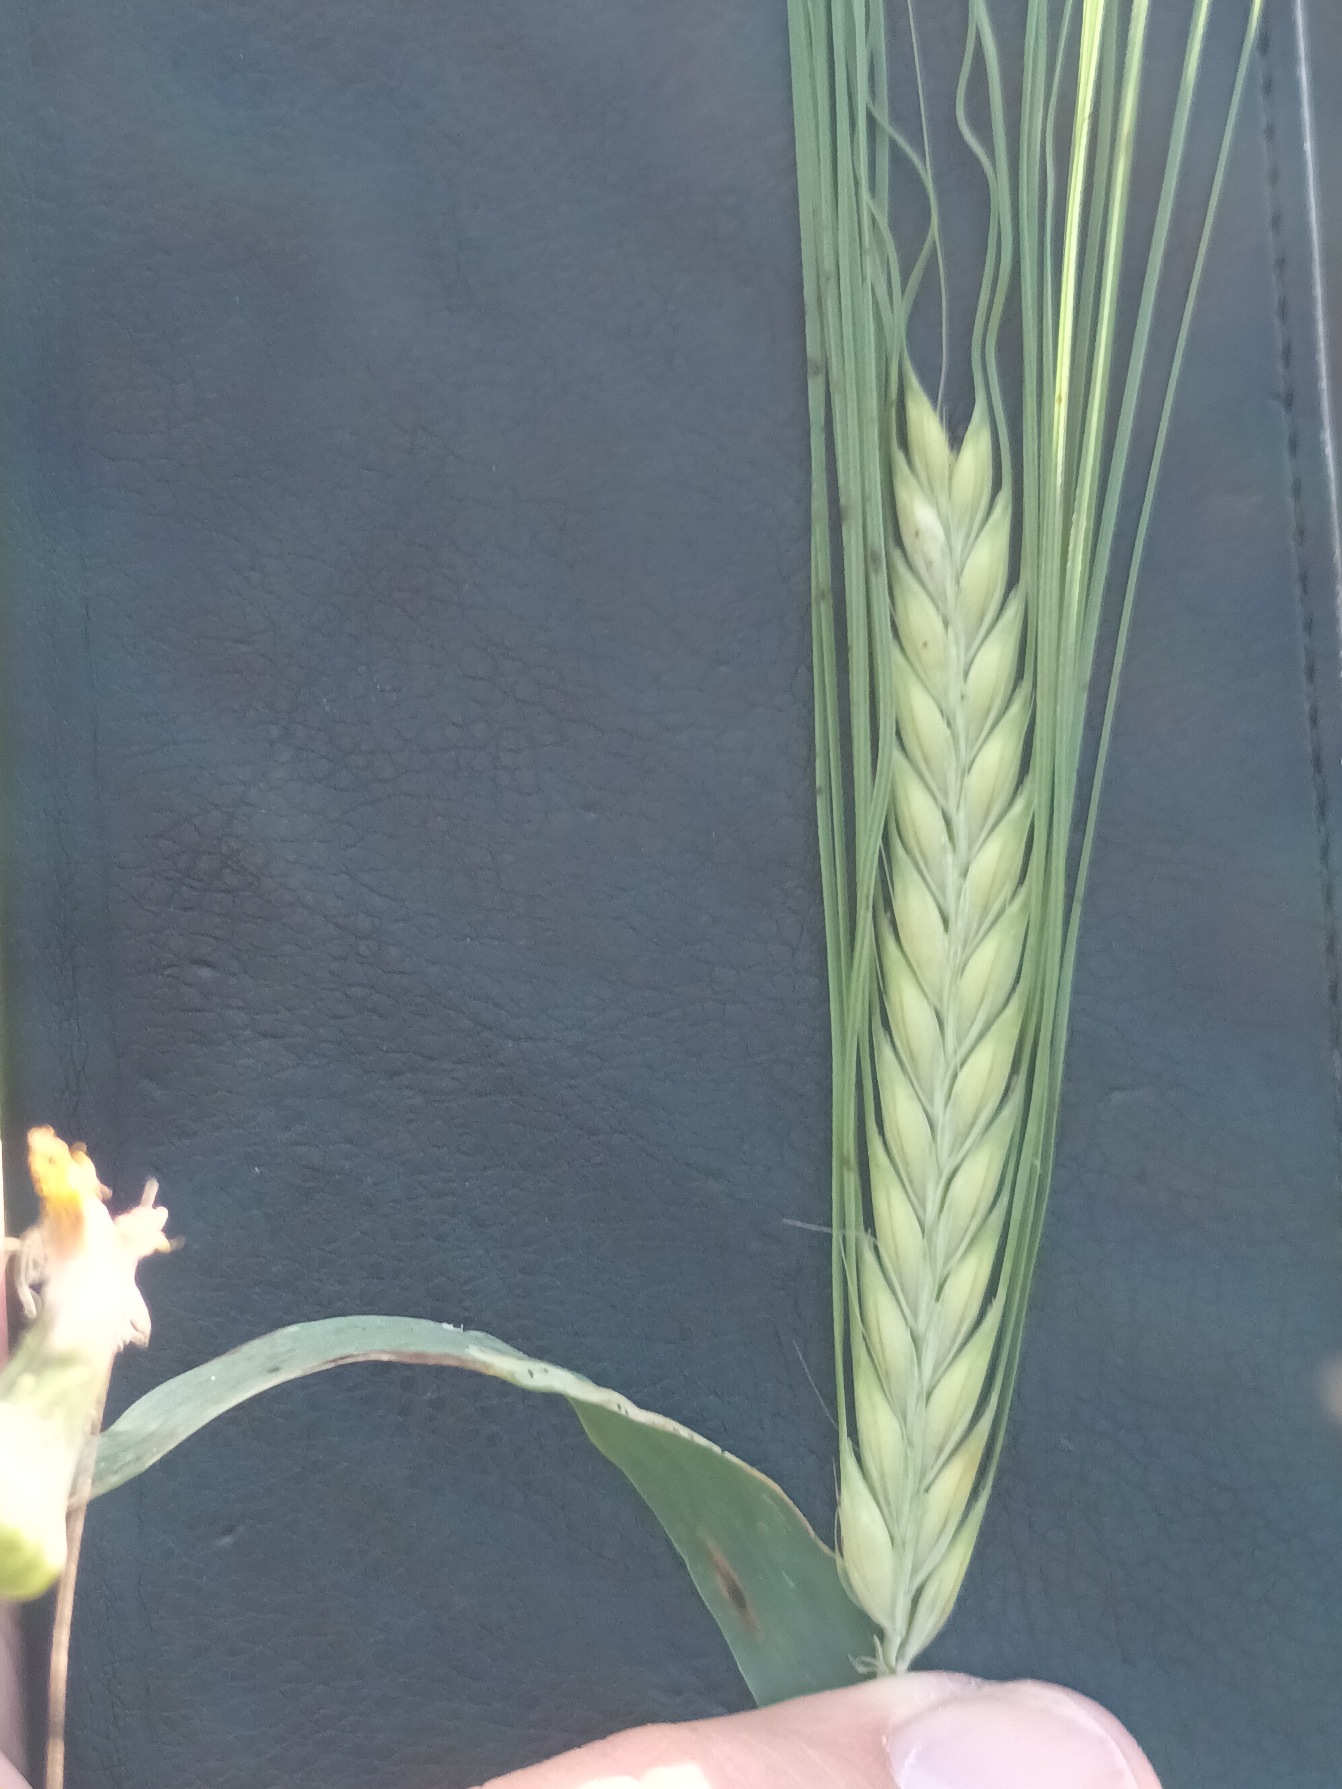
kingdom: Plantae
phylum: Tracheophyta
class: Liliopsida
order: Poales
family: Poaceae
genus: Hordeum
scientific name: Hordeum vulgare
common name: Toradet byg
